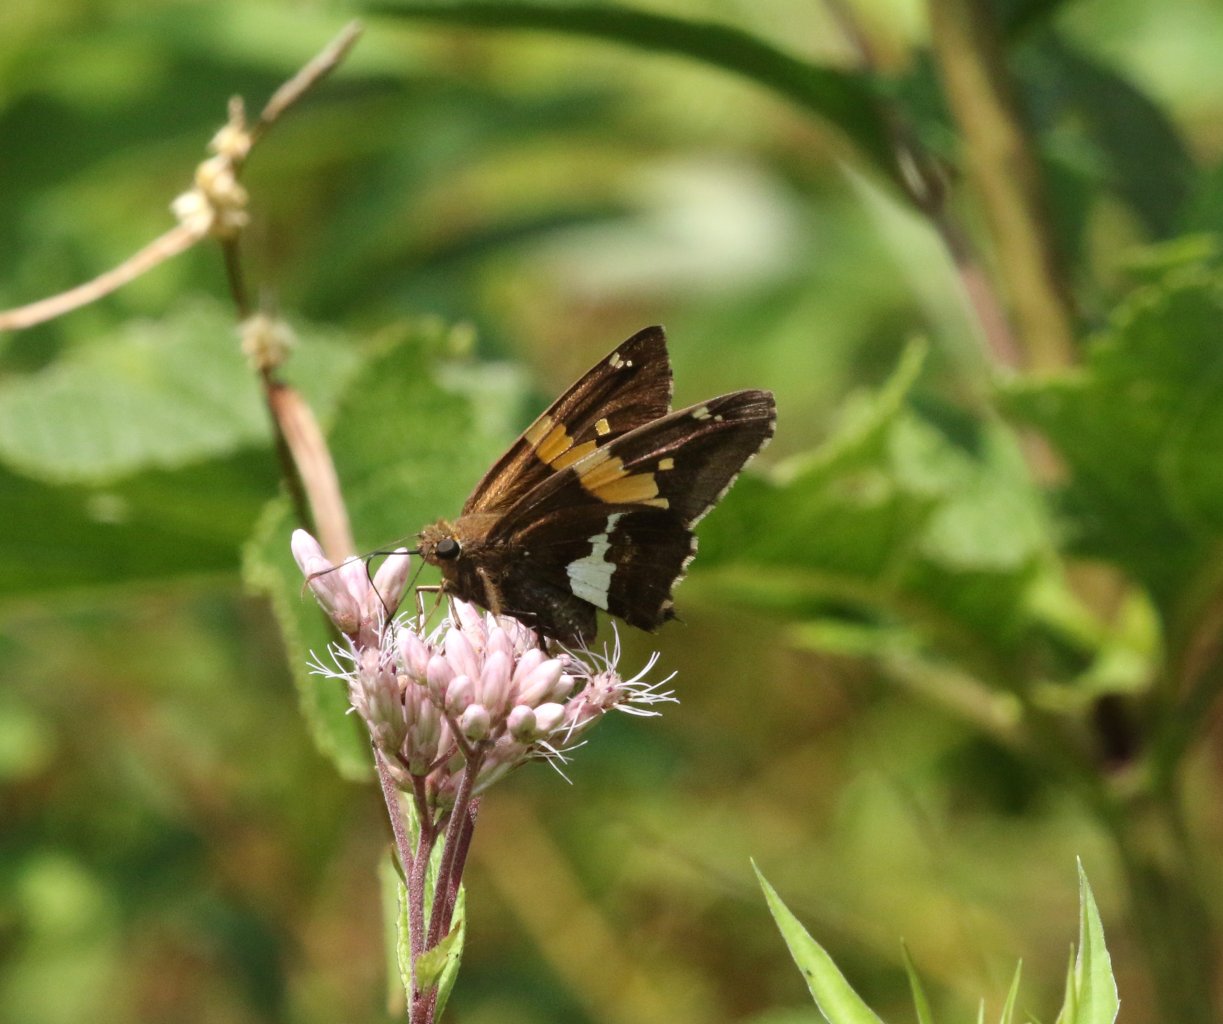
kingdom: Animalia
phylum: Arthropoda
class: Insecta
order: Lepidoptera
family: Hesperiidae
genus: Epargyreus
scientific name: Epargyreus clarus
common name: Silver-spotted Skipper
